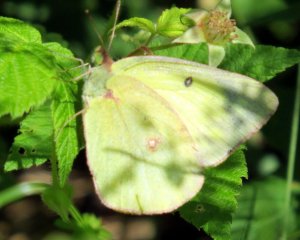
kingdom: Animalia
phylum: Arthropoda
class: Insecta
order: Lepidoptera
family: Pieridae
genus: Colias
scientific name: Colias philodice
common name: Clouded Sulphur
